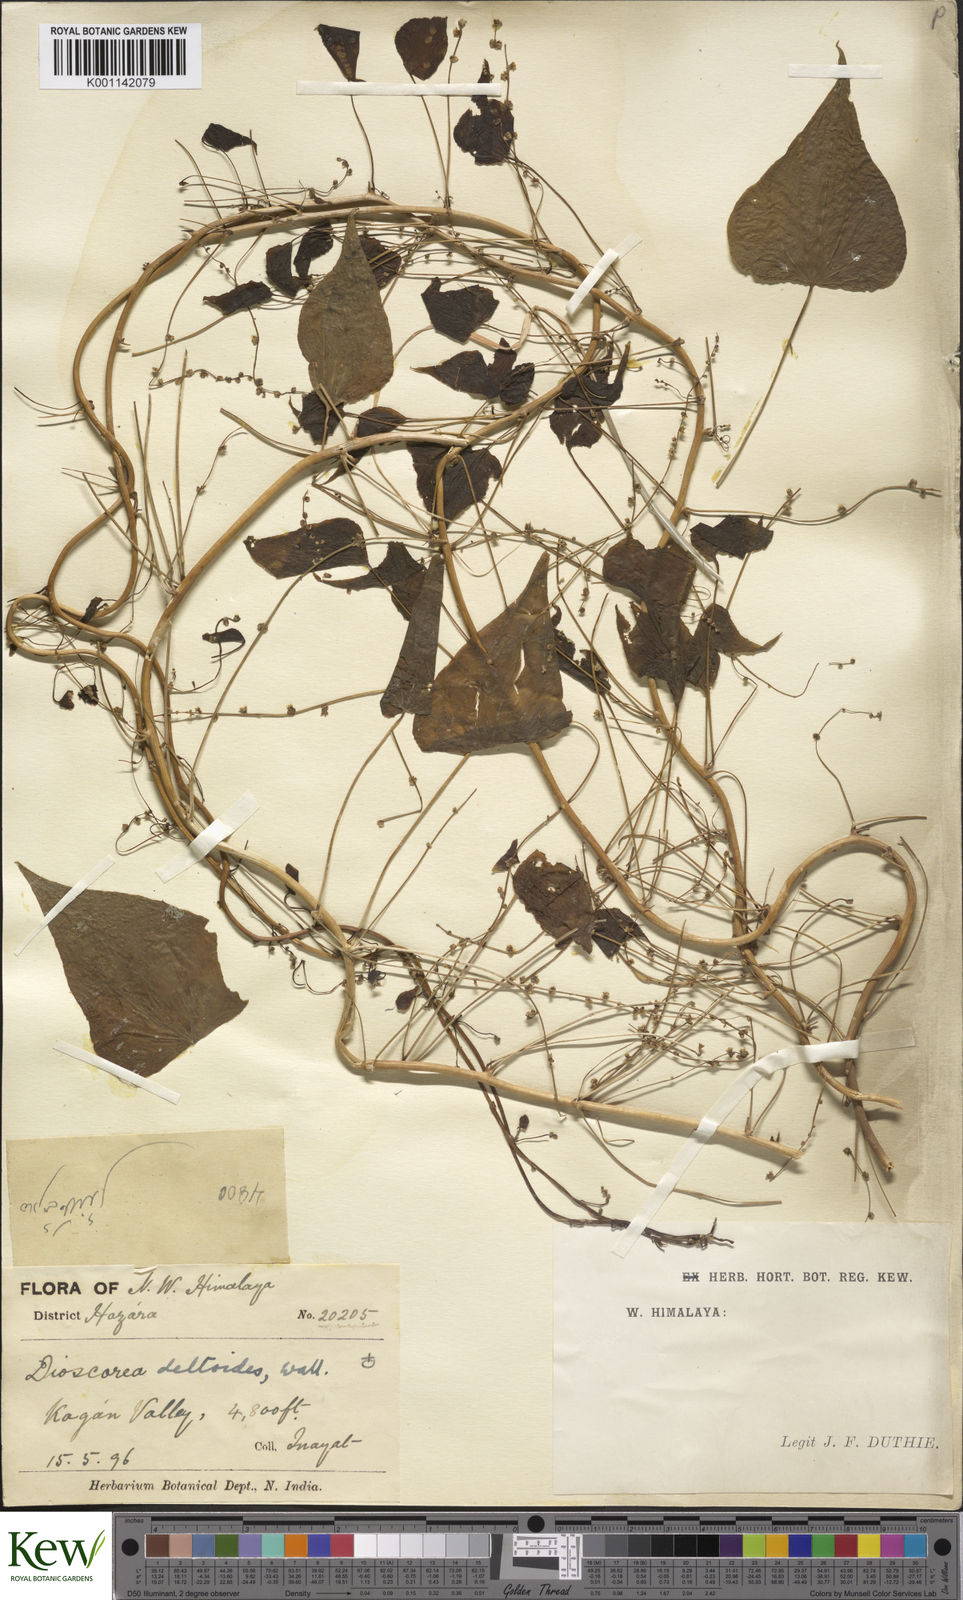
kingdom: Plantae
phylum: Tracheophyta
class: Liliopsida
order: Dioscoreales
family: Dioscoreaceae
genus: Dioscorea
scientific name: Dioscorea deltoidea
